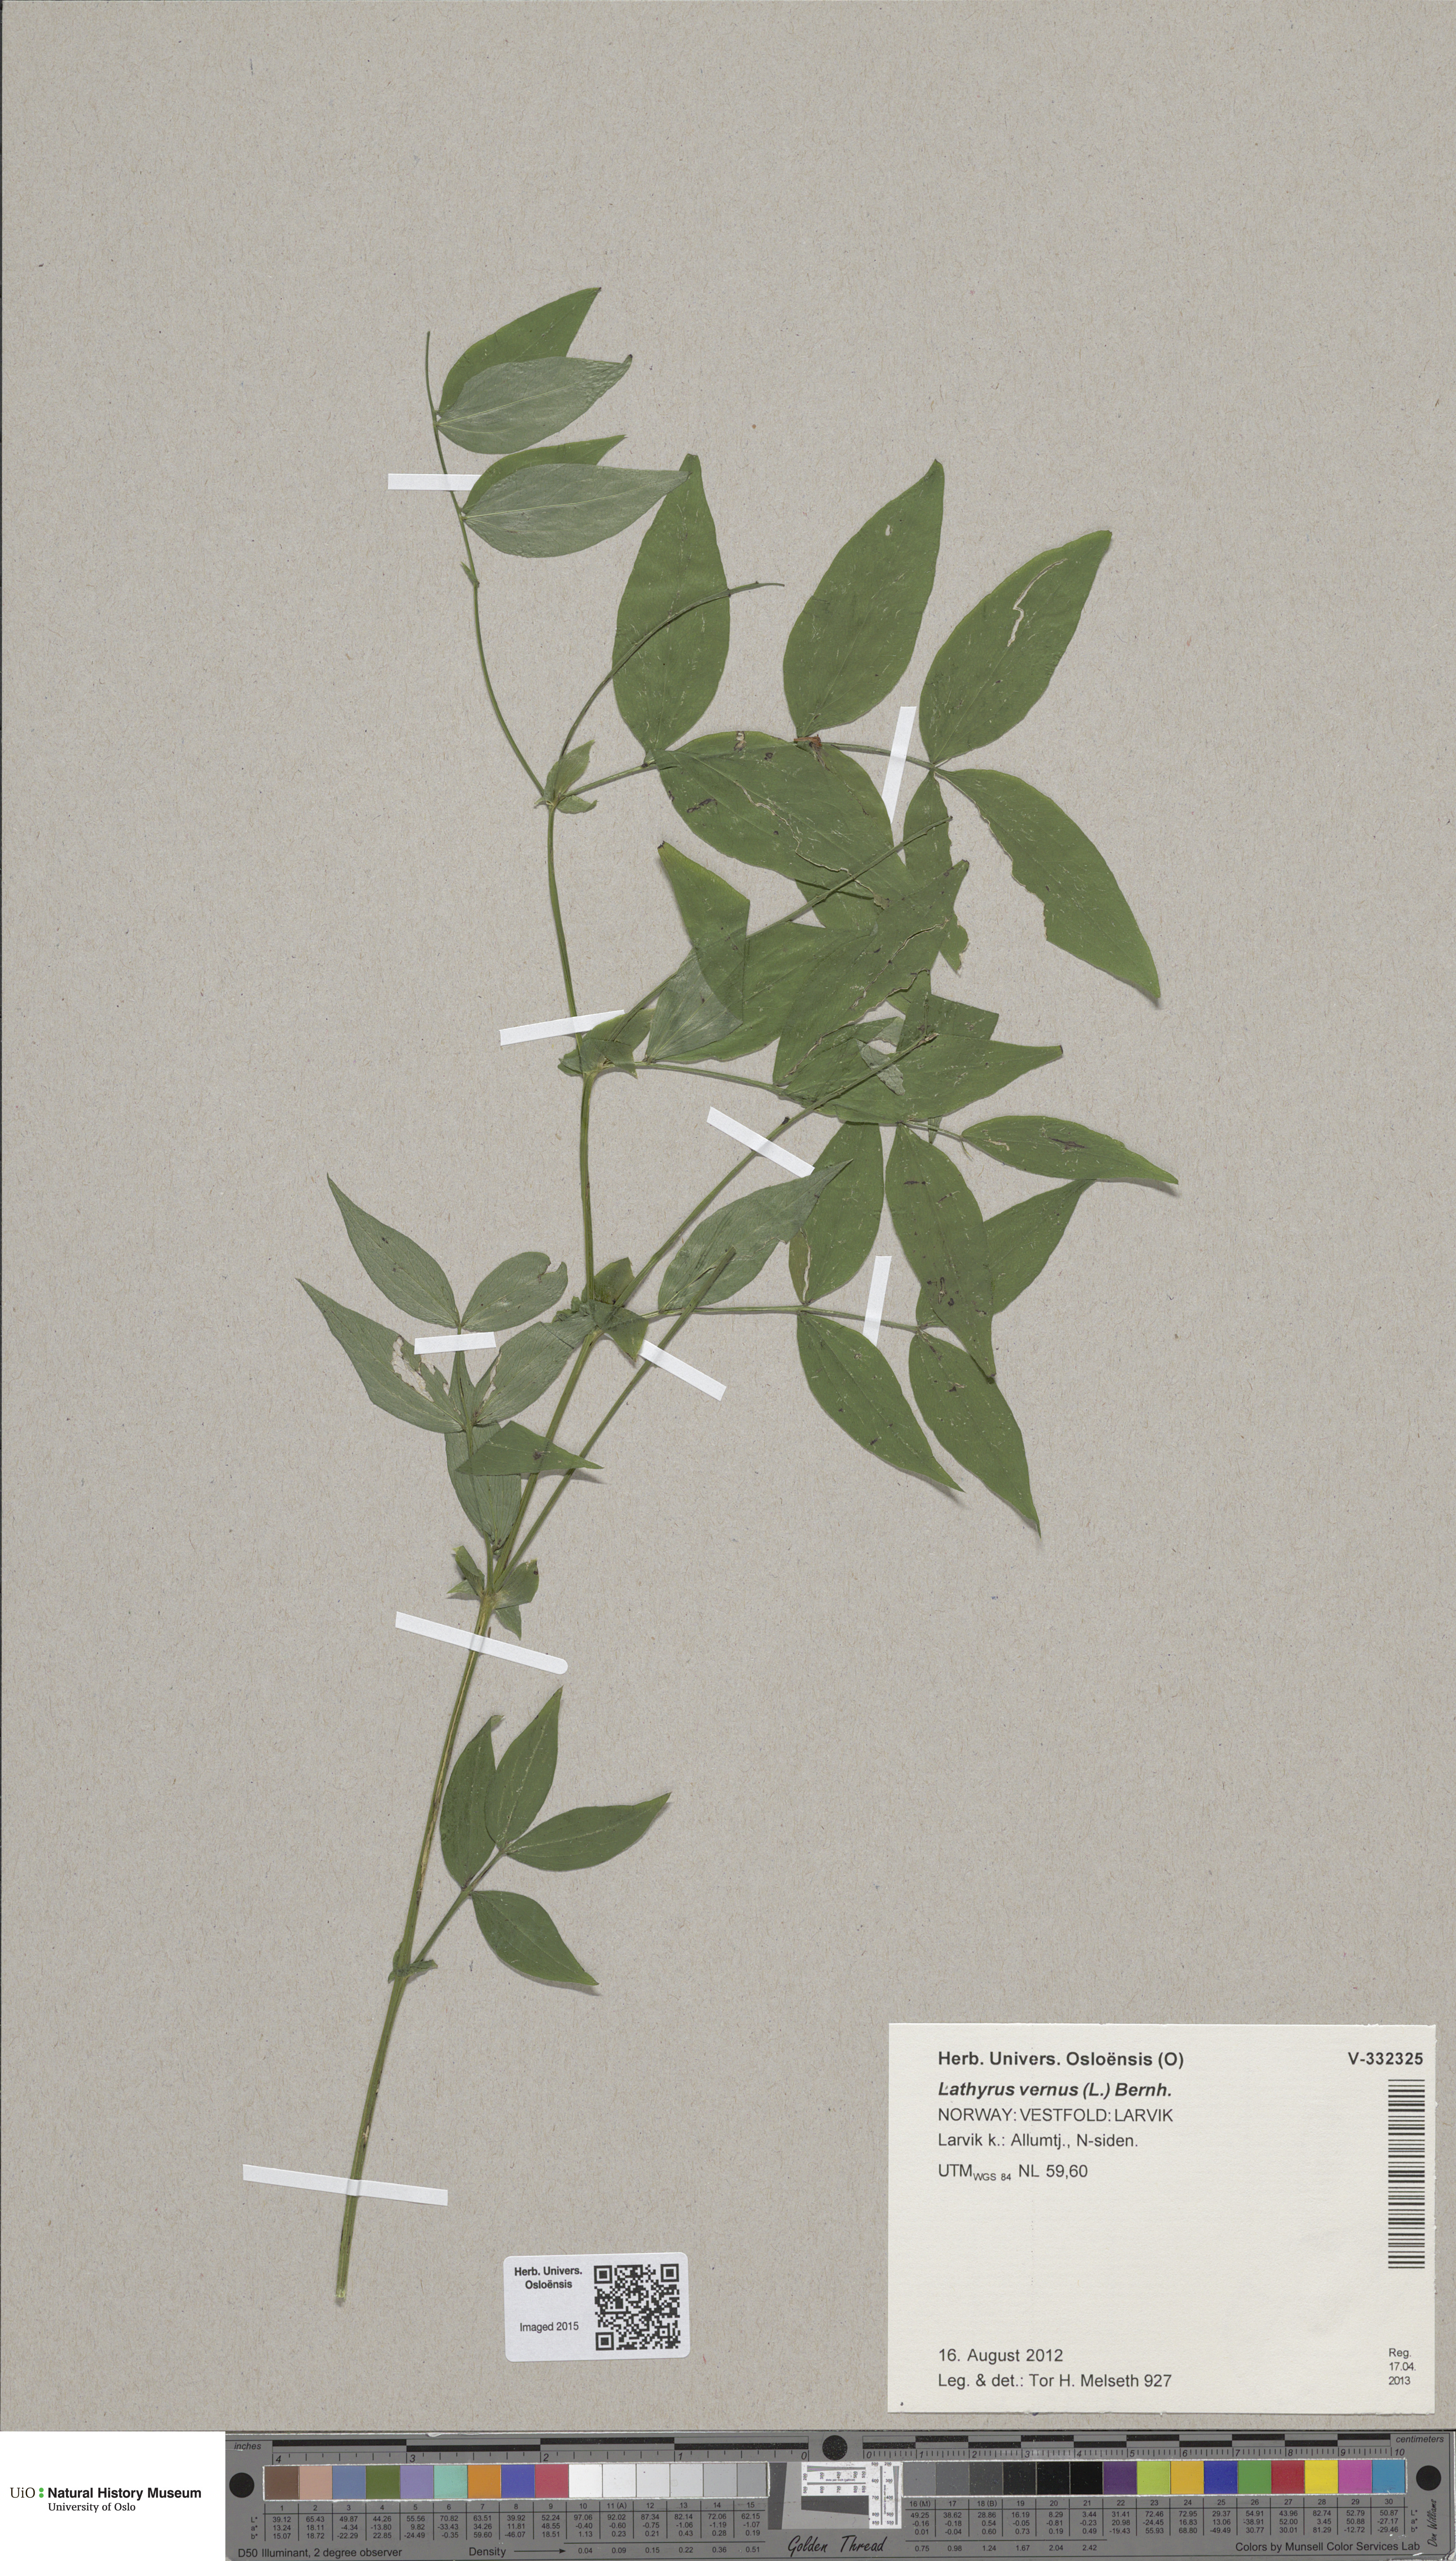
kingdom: Plantae
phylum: Tracheophyta
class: Magnoliopsida
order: Fabales
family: Fabaceae
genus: Lathyrus
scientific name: Lathyrus vernus
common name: Spring pea
